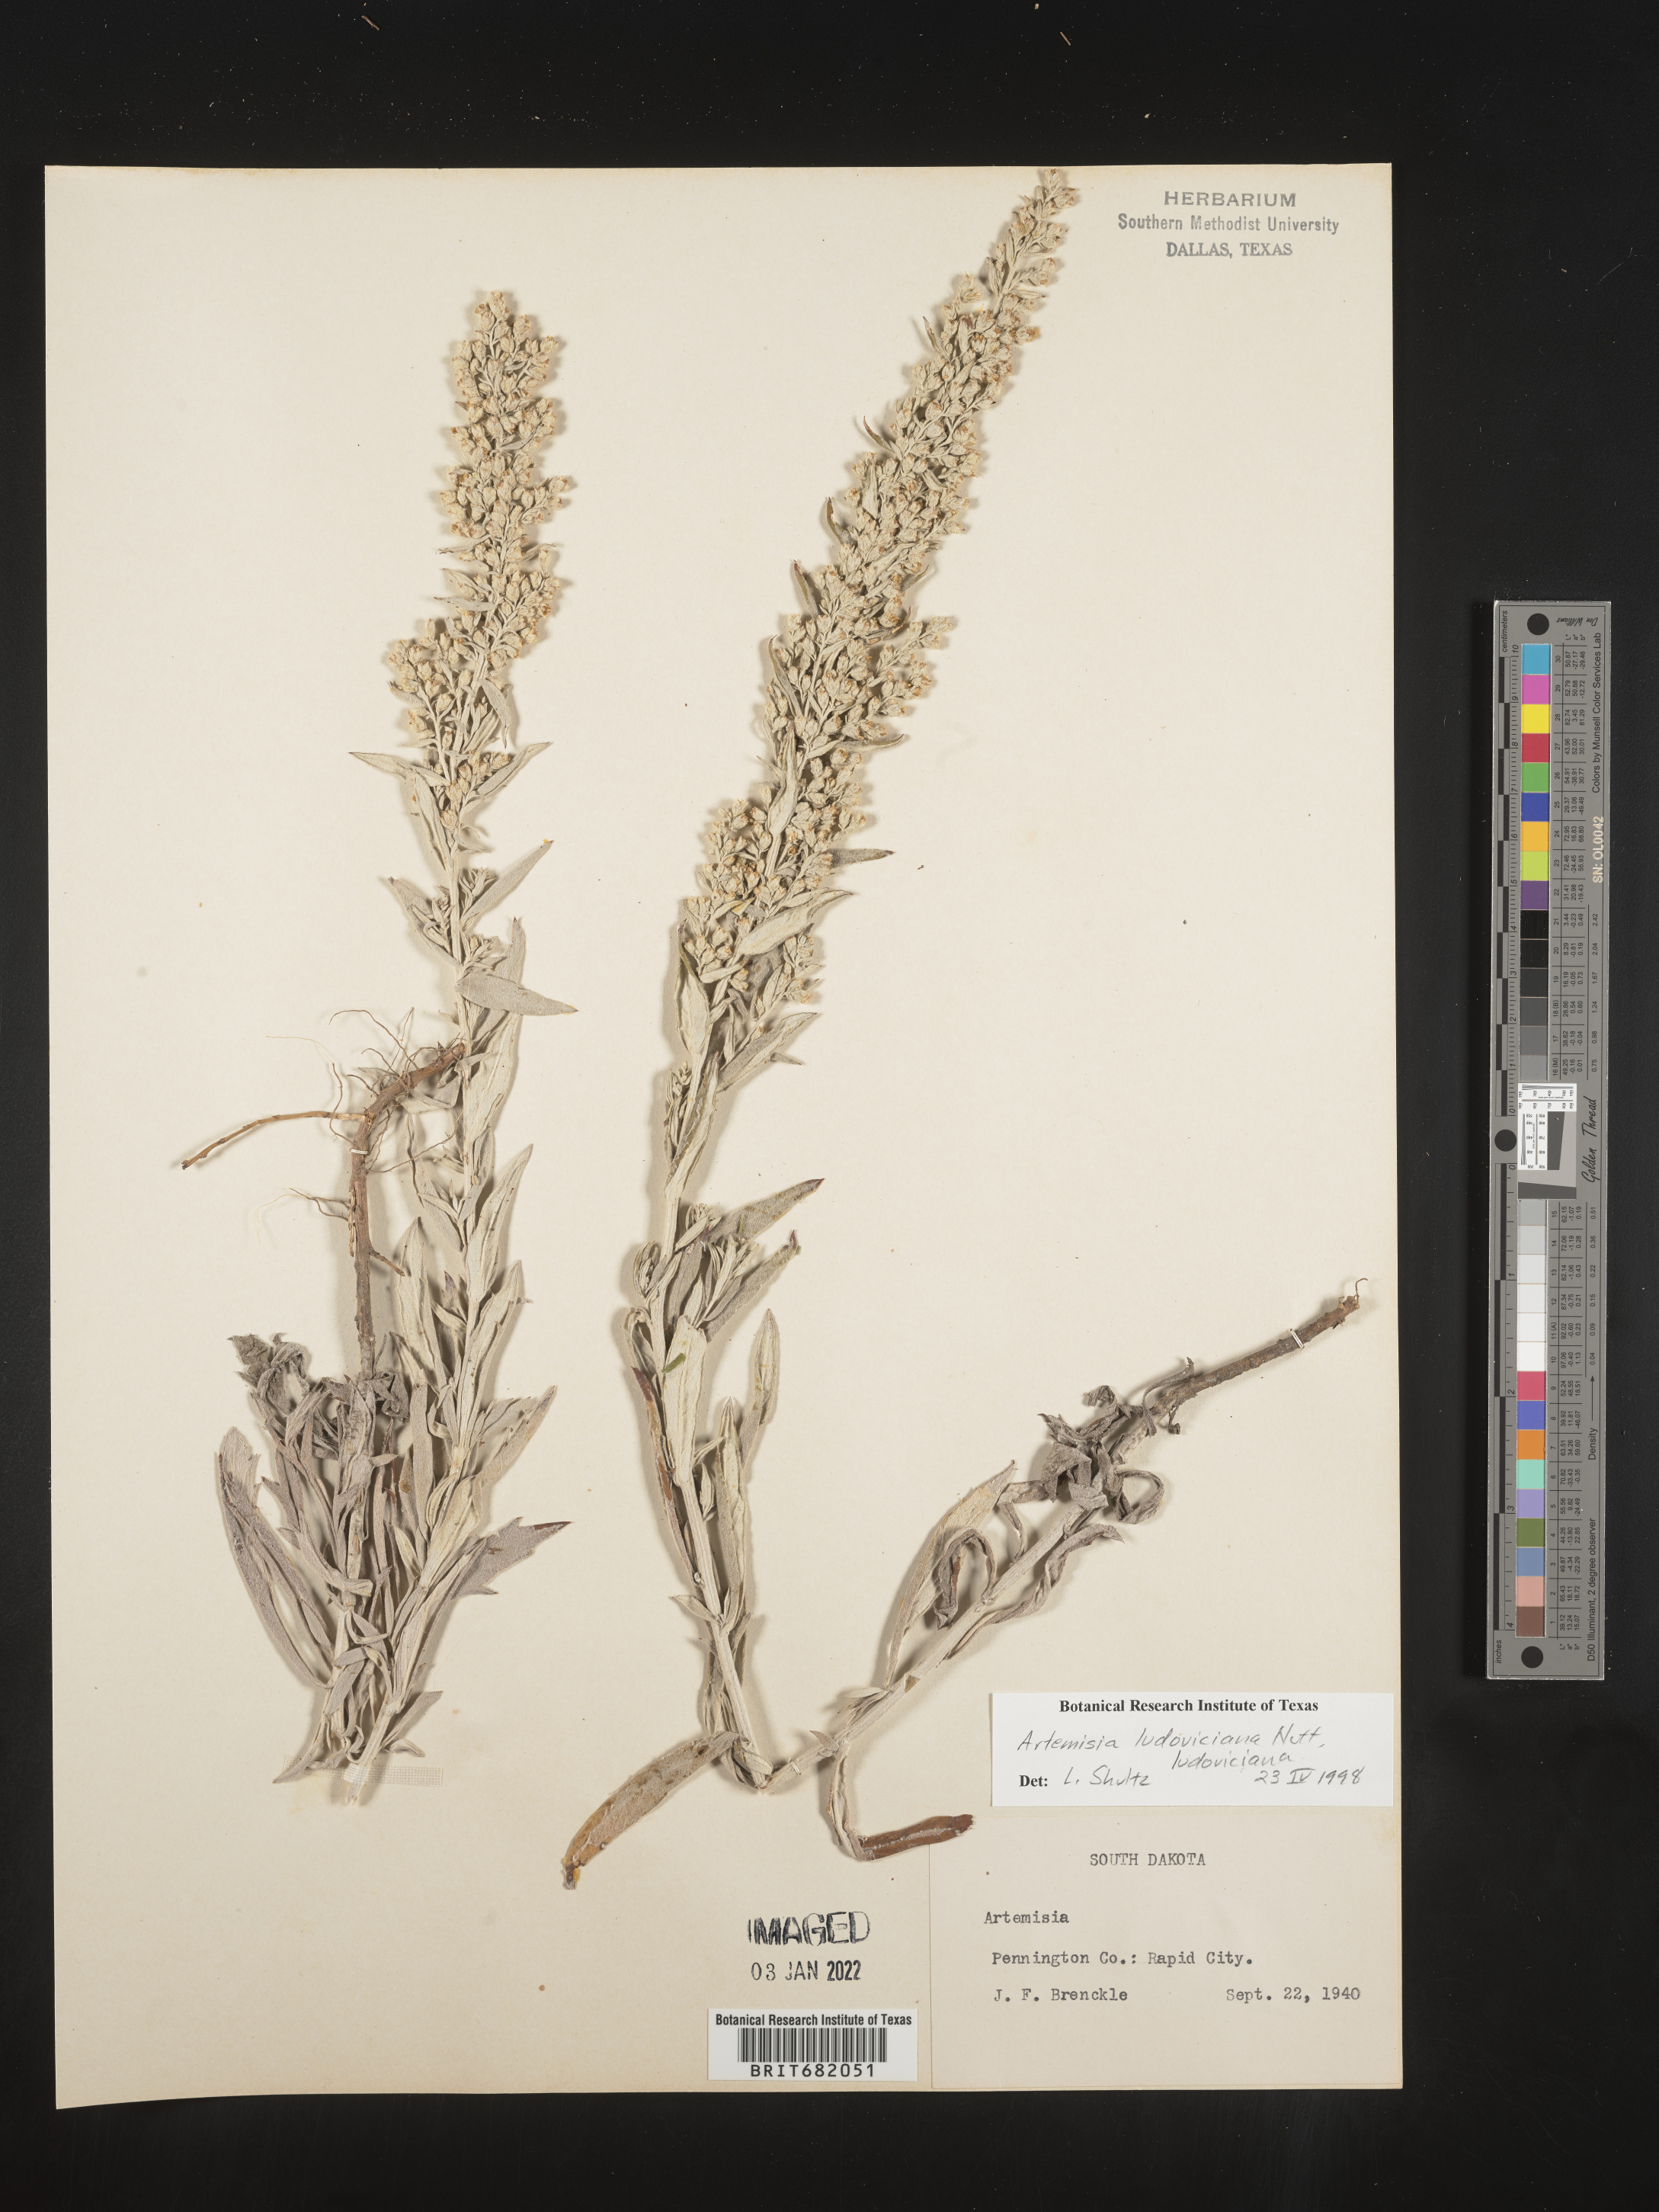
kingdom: Plantae
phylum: Tracheophyta
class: Magnoliopsida
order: Asterales
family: Asteraceae
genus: Artemisia
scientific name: Artemisia ludoviciana
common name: Western mugwort
